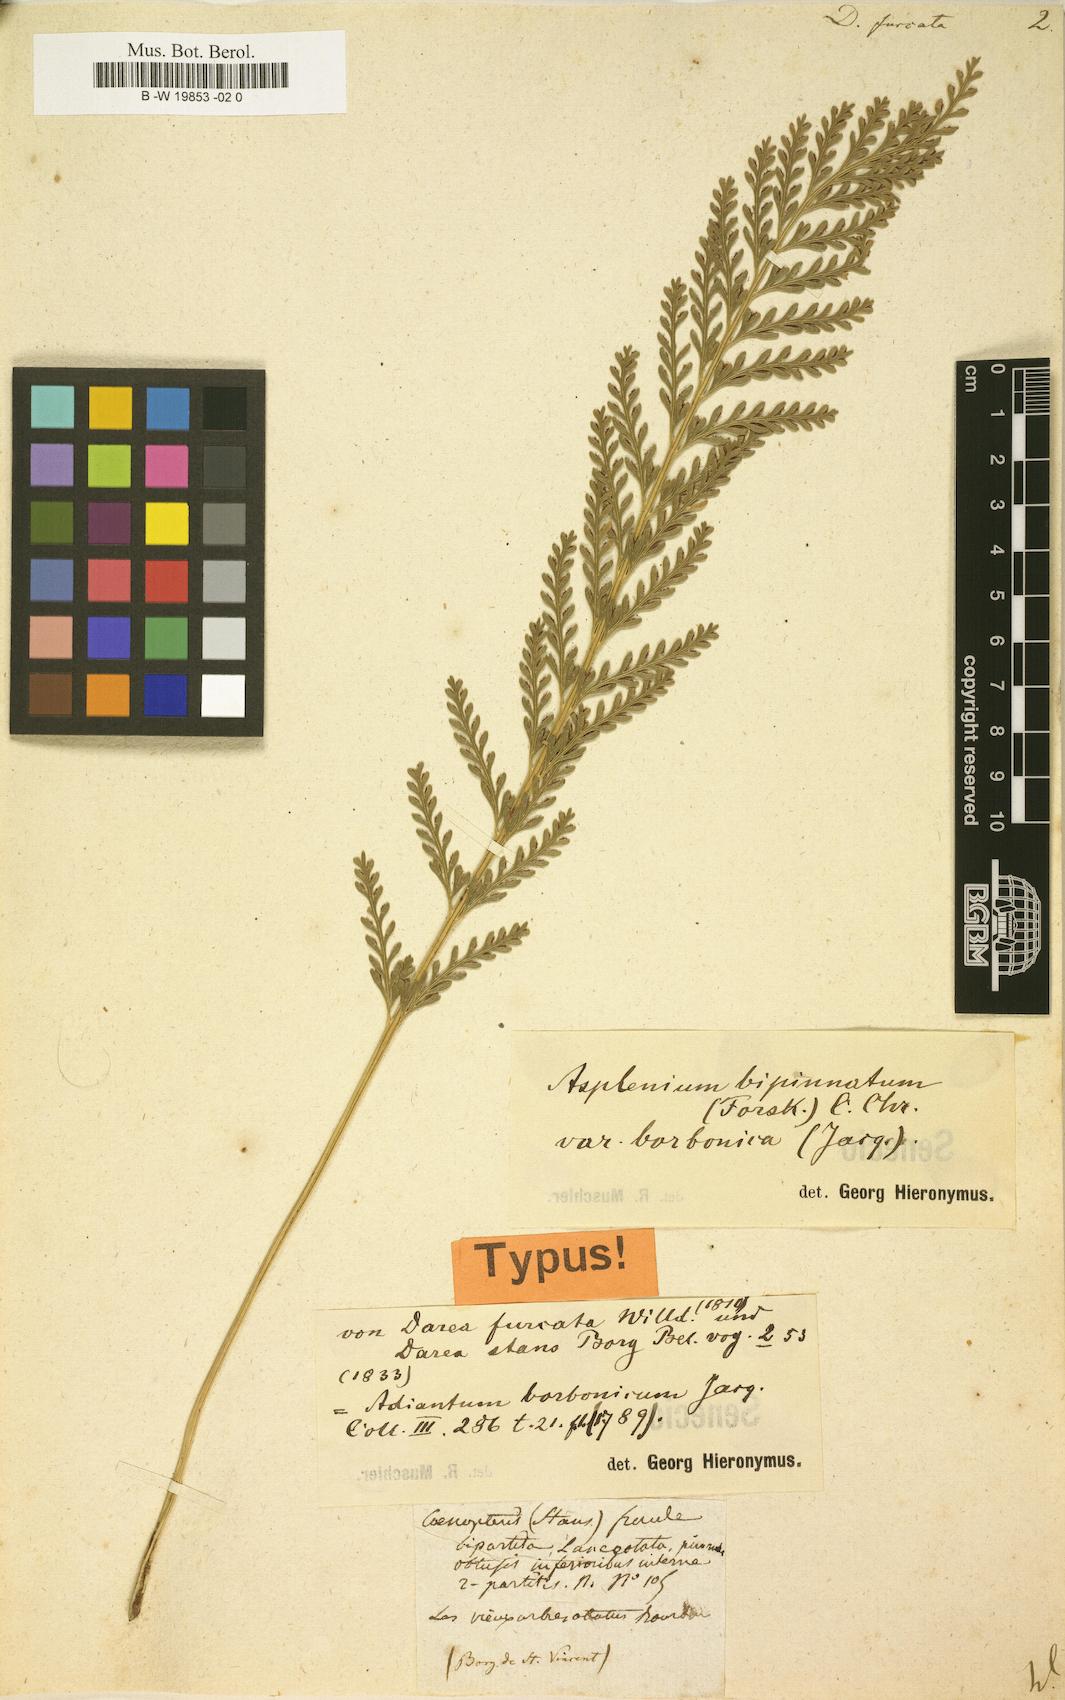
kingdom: Plantae
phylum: Tracheophyta
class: Polypodiopsida
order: Polypodiales
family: Aspleniaceae
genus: Asplenium
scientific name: Asplenium
